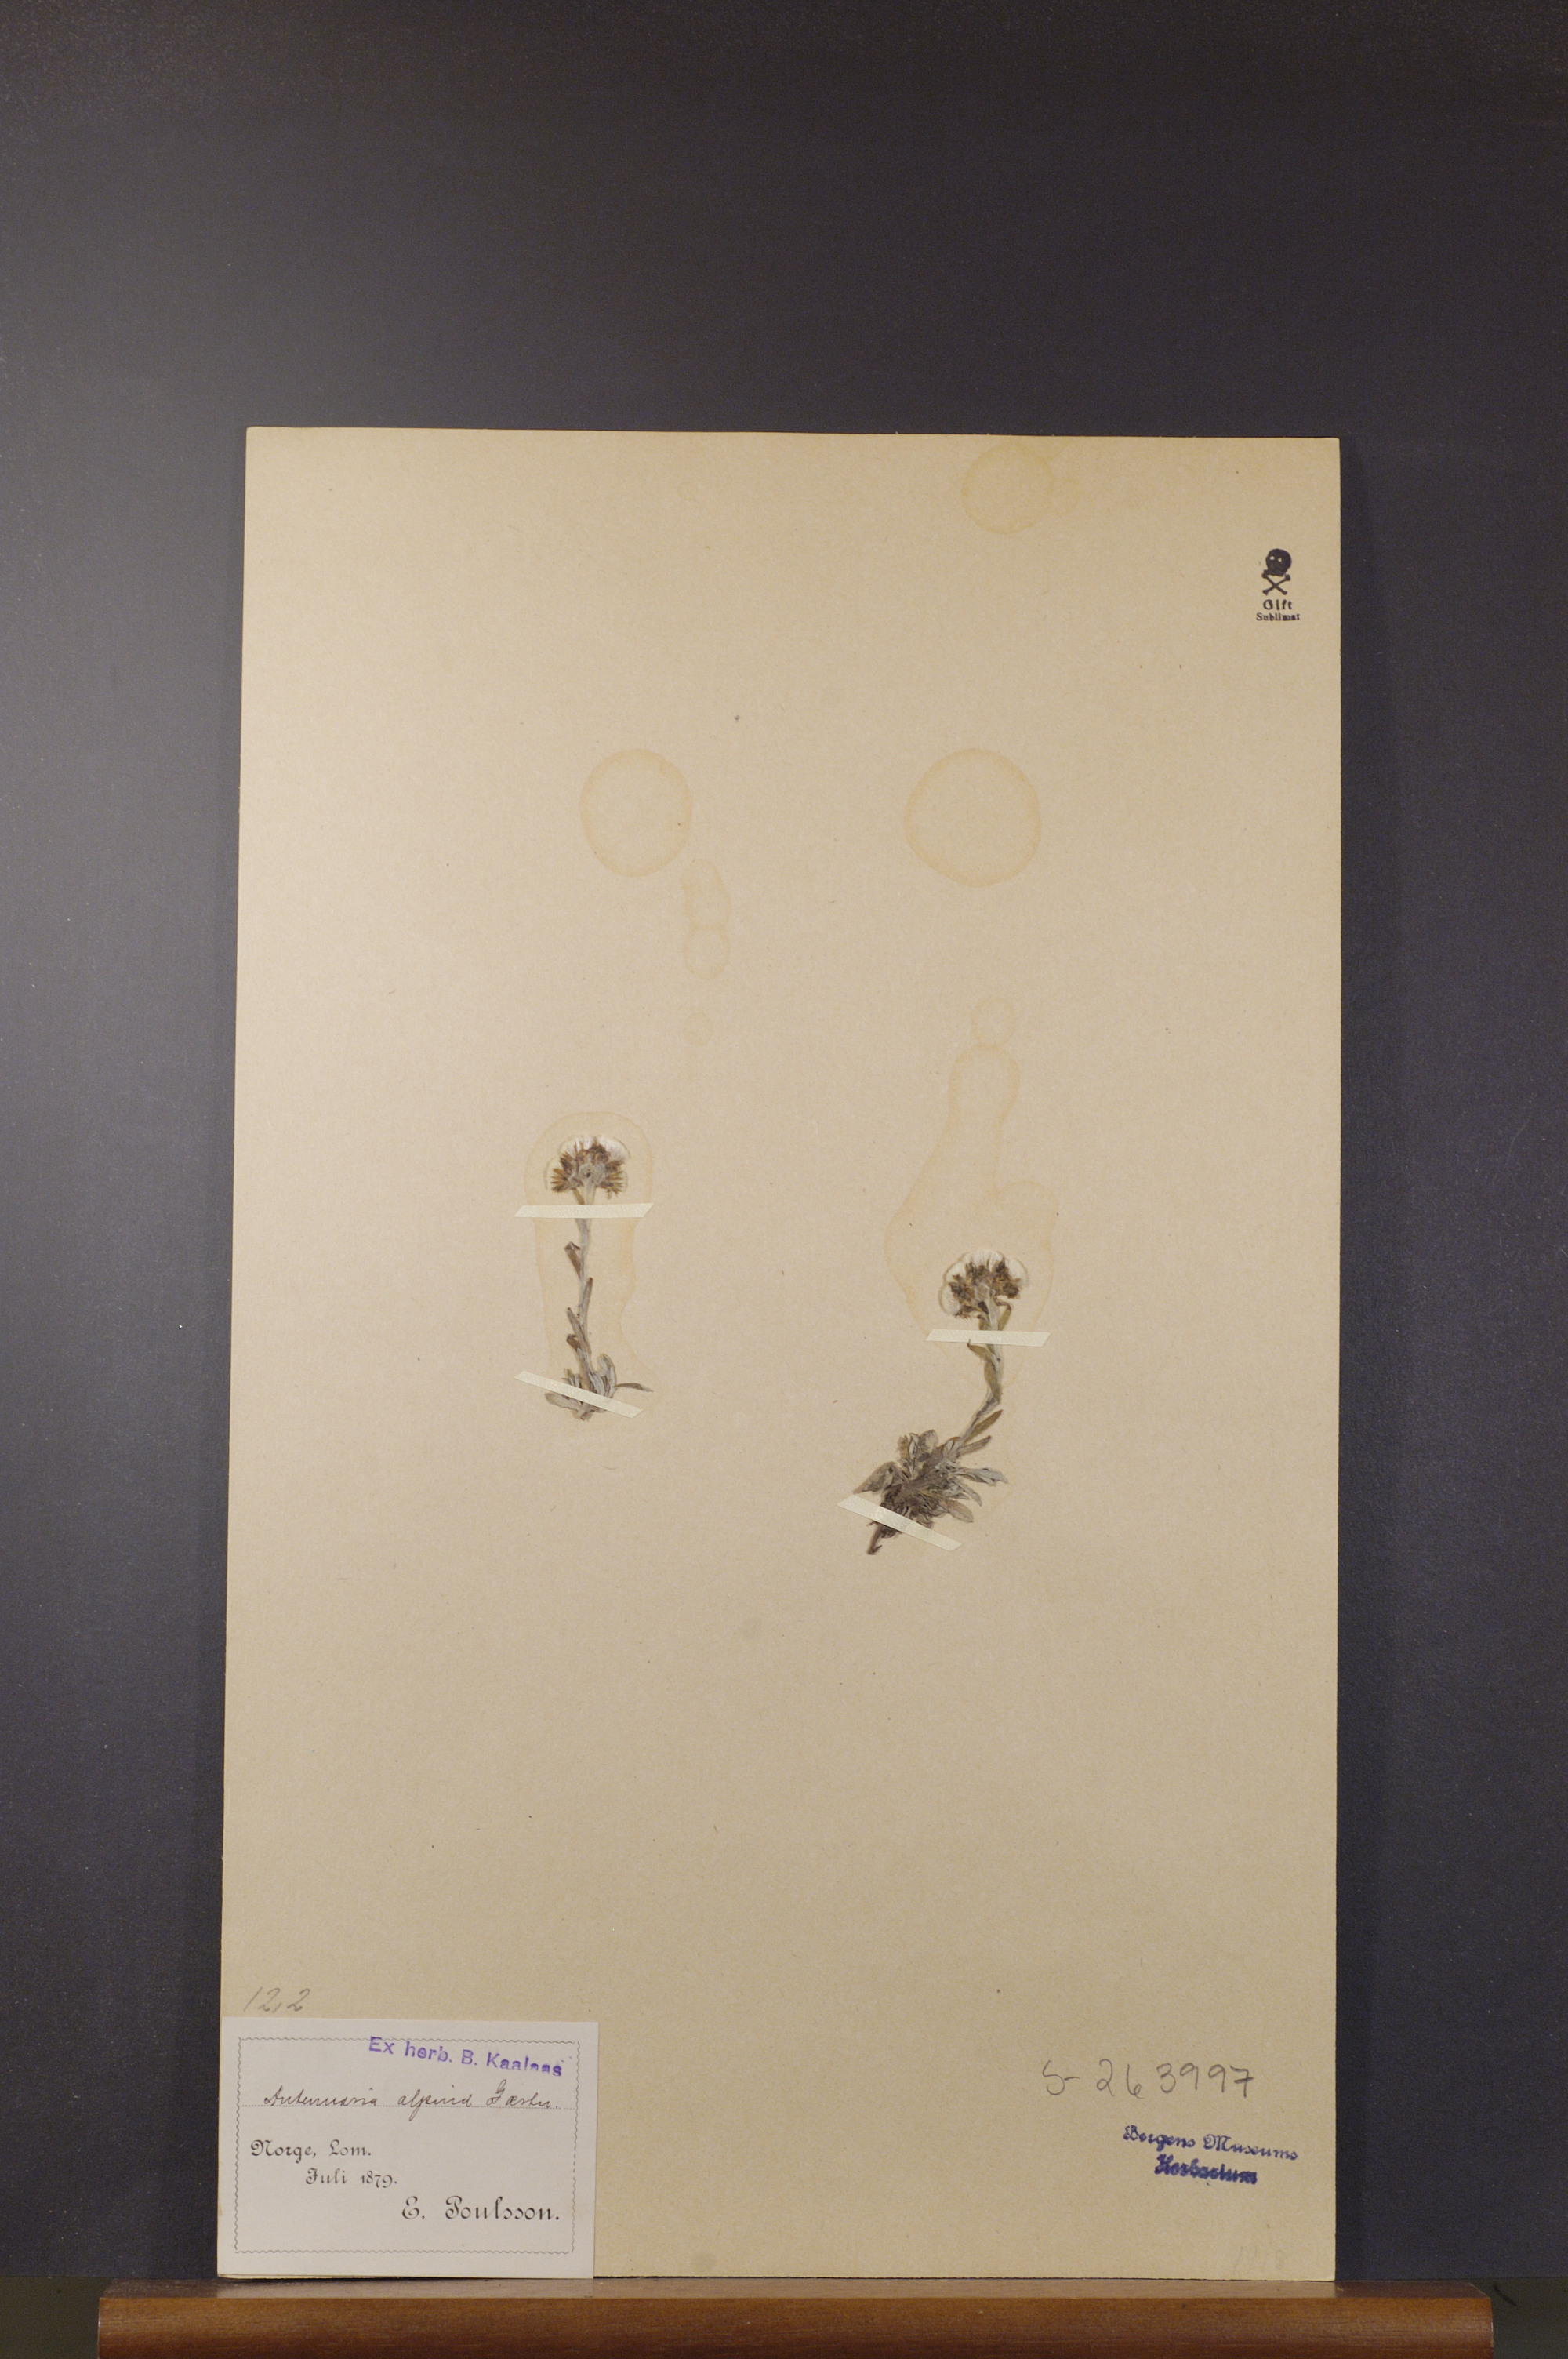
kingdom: Plantae
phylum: Tracheophyta
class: Magnoliopsida
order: Asterales
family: Asteraceae
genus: Antennaria
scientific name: Antennaria alpina
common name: Alpine pussytoes
